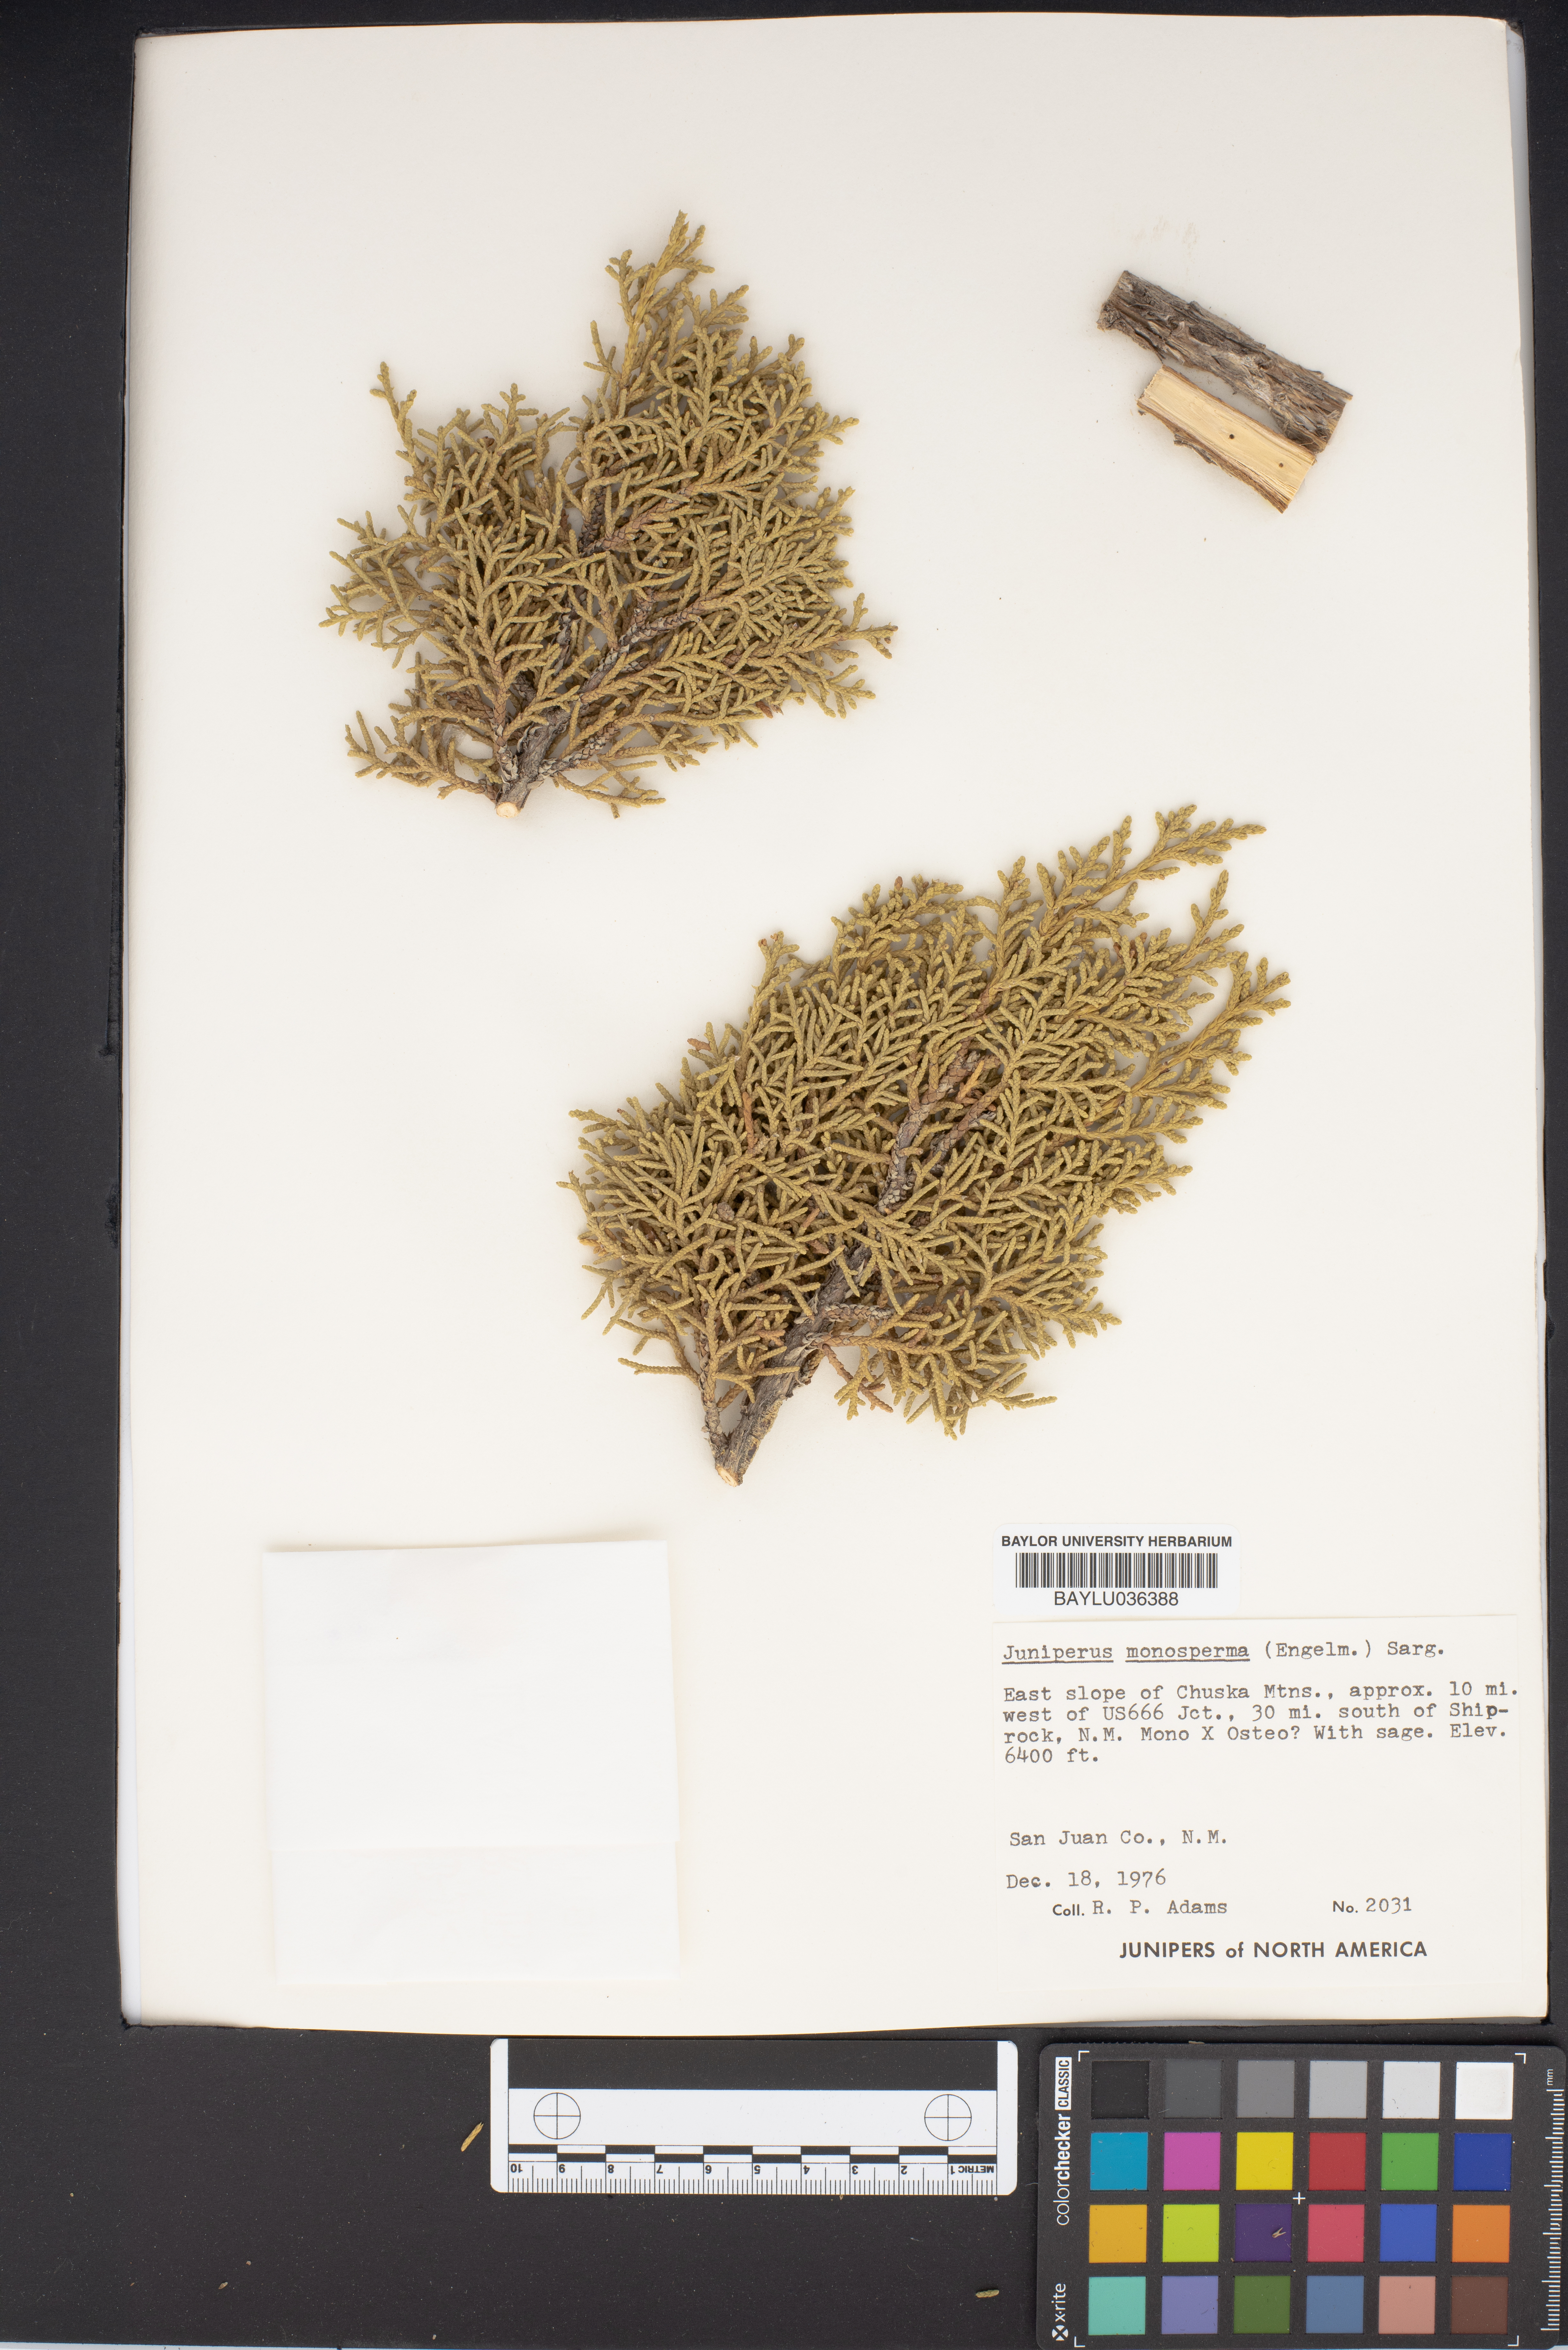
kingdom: Plantae
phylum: Tracheophyta
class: Pinopsida
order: Pinales
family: Cupressaceae
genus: Juniperus
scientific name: Juniperus monosperma
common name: One-seed juniper
